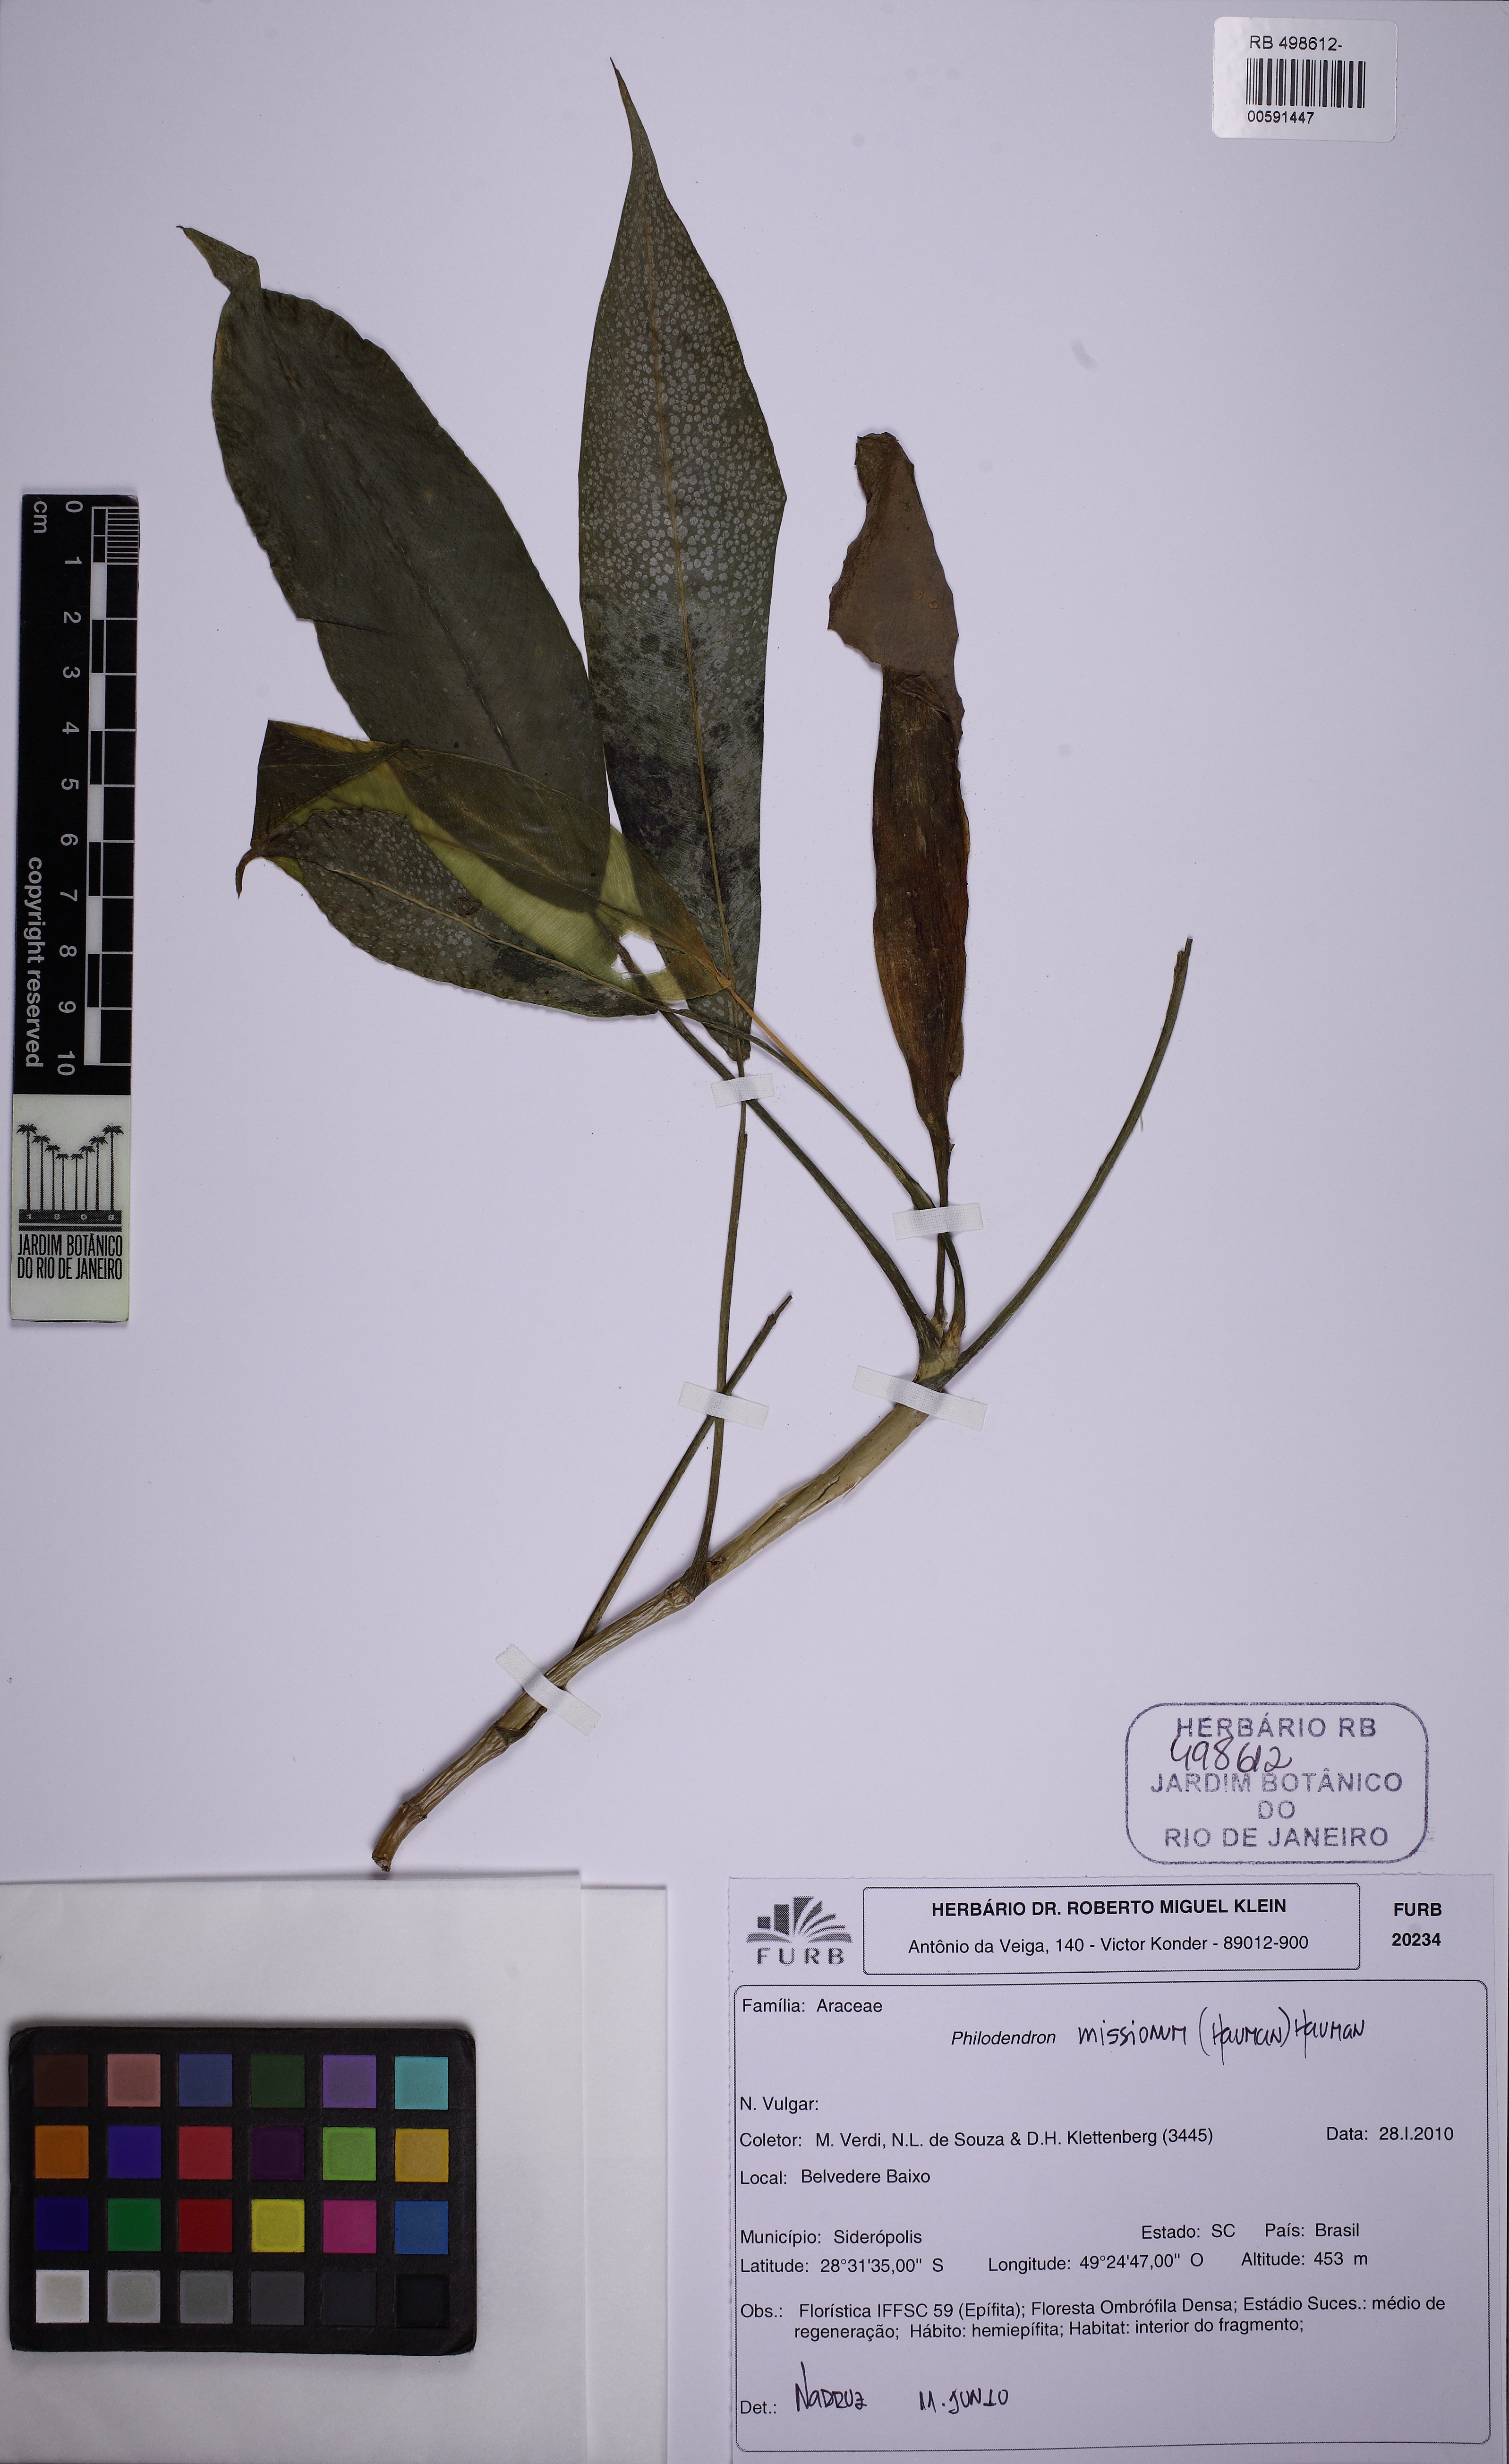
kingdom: Plantae
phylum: Tracheophyta
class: Liliopsida
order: Alismatales
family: Araceae
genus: Philodendron
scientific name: Philodendron missionum
